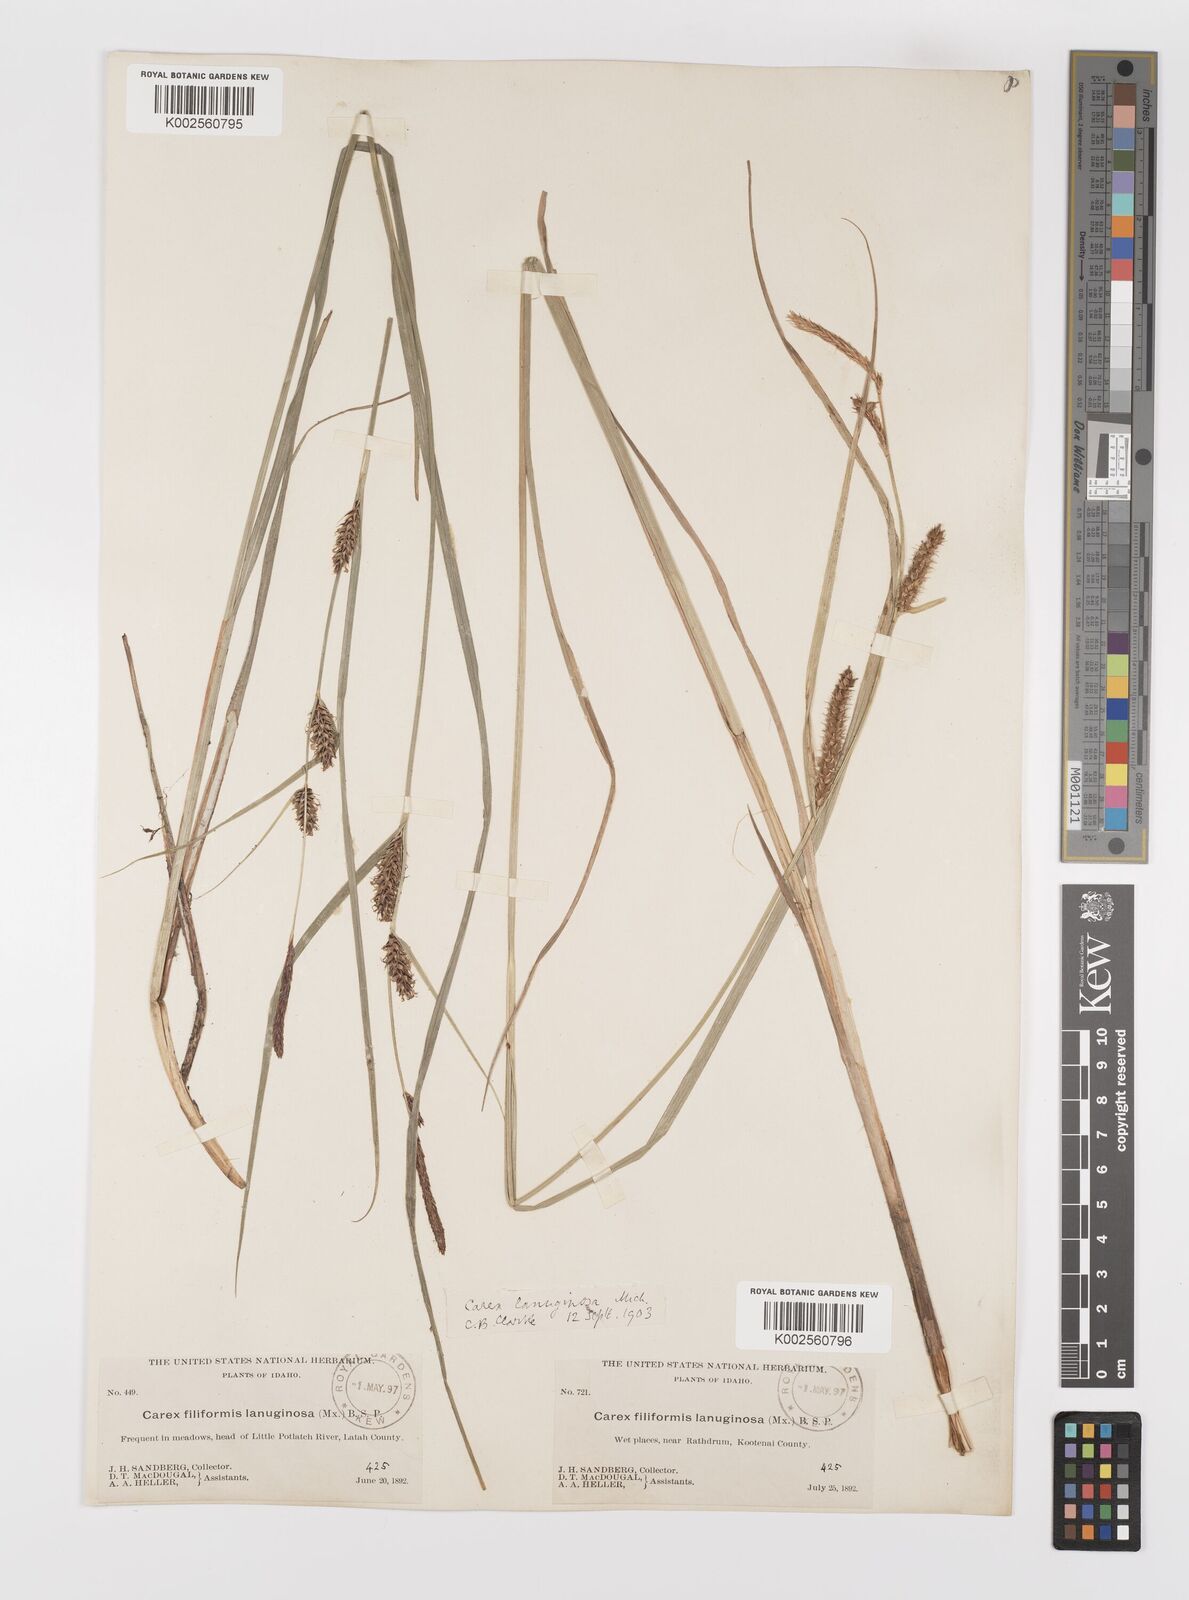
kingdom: Plantae
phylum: Tracheophyta
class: Liliopsida
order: Poales
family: Cyperaceae
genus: Carex
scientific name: Carex lasiocarpa
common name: Slender sedge
